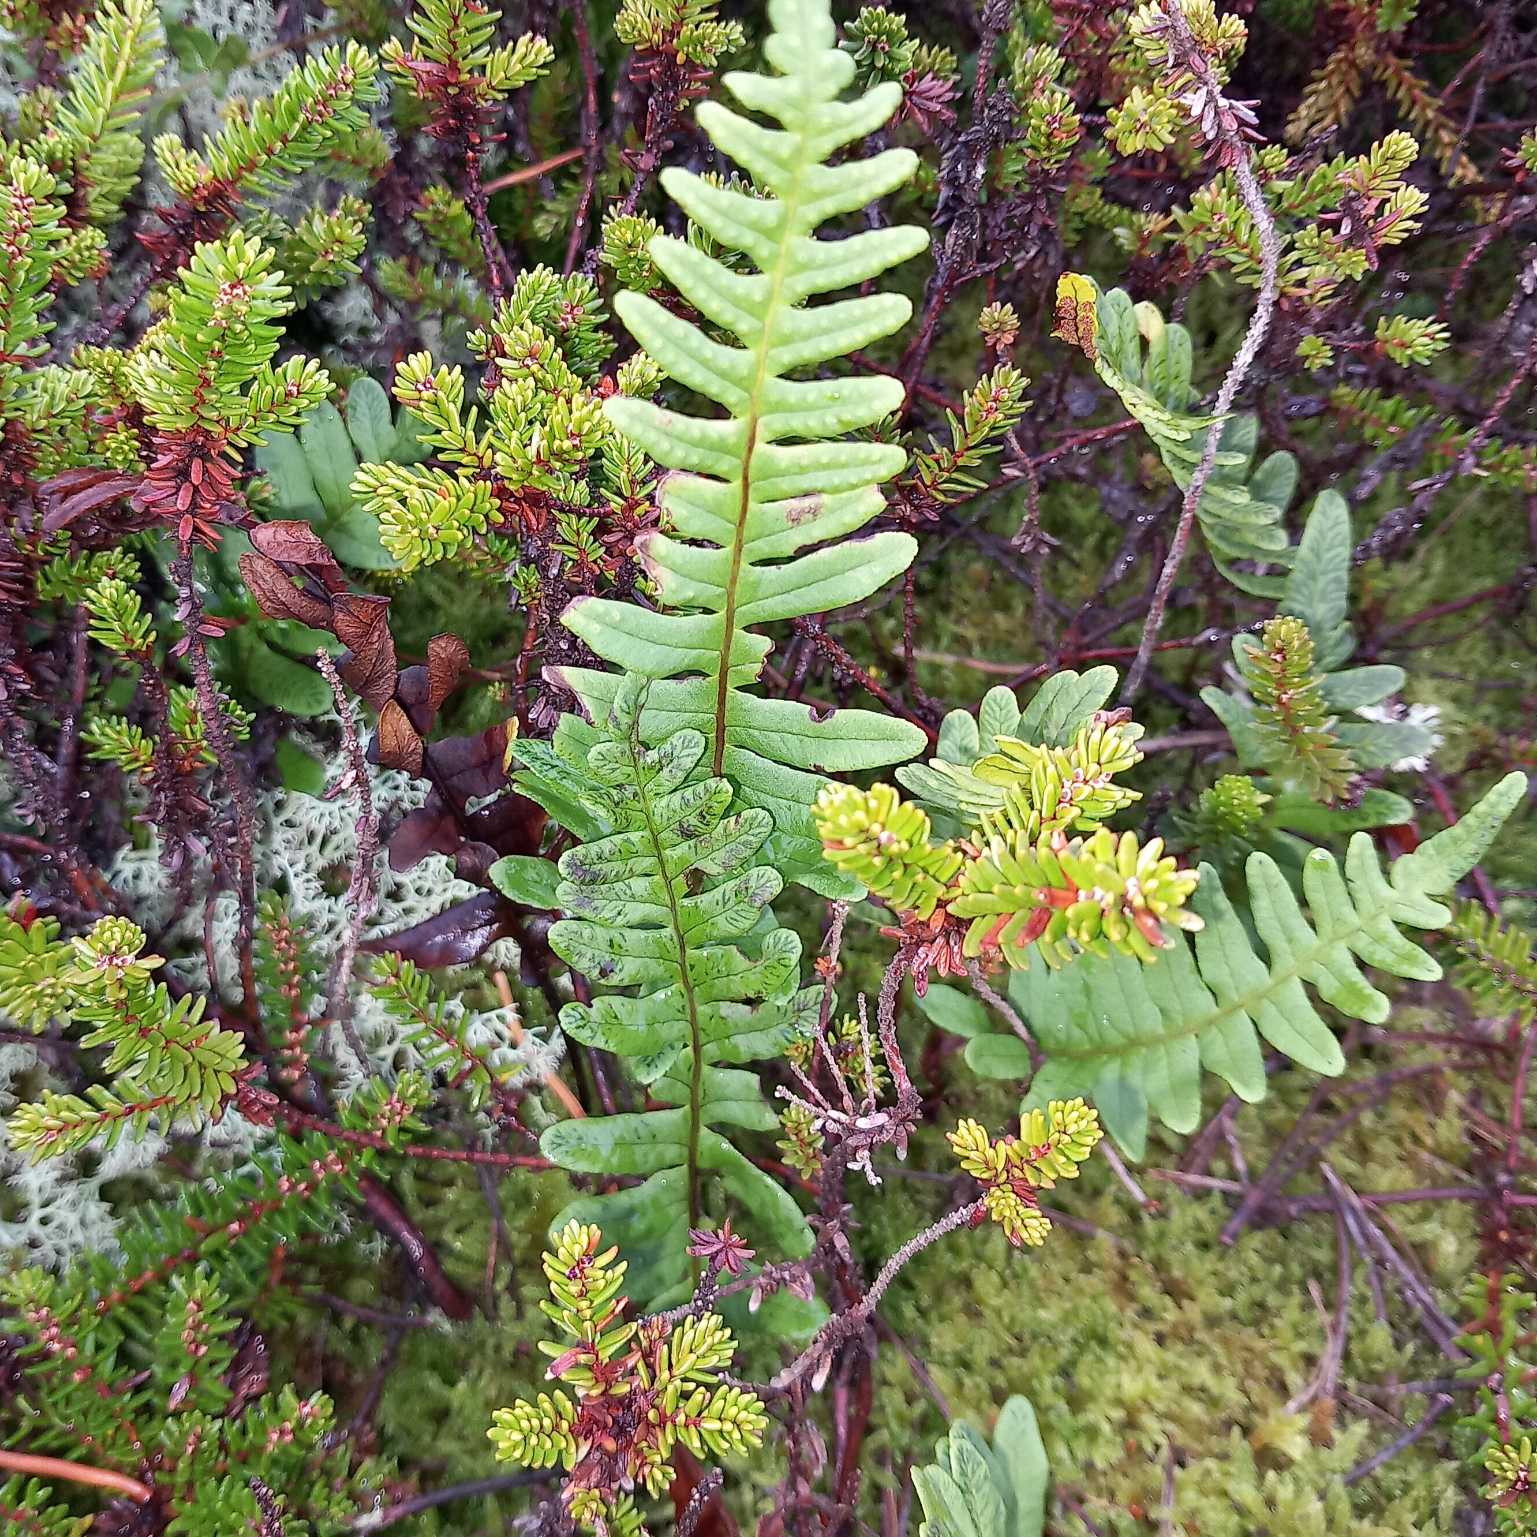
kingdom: Plantae
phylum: Tracheophyta
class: Polypodiopsida
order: Polypodiales
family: Polypodiaceae
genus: Polypodium
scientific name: Polypodium vulgare
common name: Almindelig engelsød
